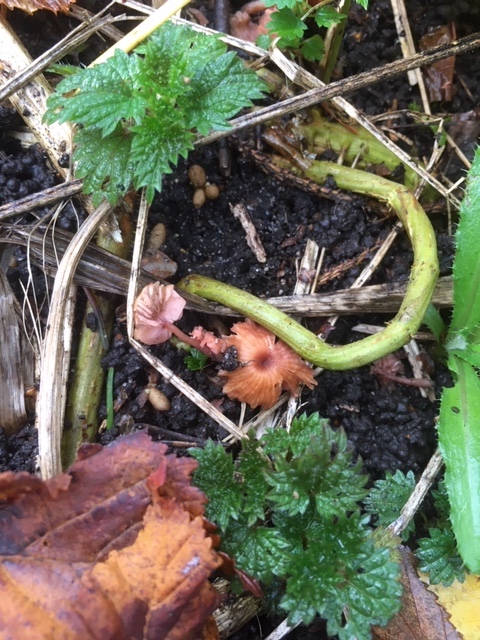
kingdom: Fungi
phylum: Basidiomycota
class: Agaricomycetes
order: Agaricales
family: Hydnangiaceae
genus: Laccaria
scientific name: Laccaria tortilis
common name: krybende ametysthat
